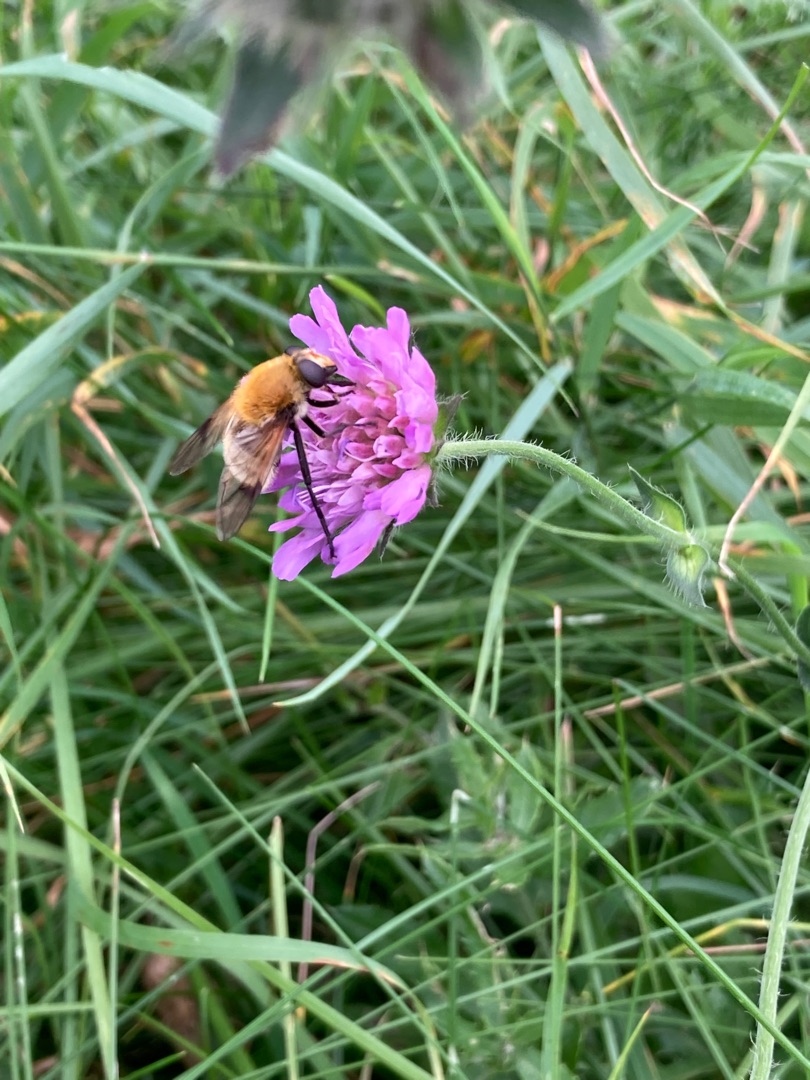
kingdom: Animalia
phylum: Arthropoda
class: Insecta
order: Diptera
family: Syrphidae
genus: Sericomyia
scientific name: Sericomyia superbiens
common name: Brun bjørnesvirreflue
